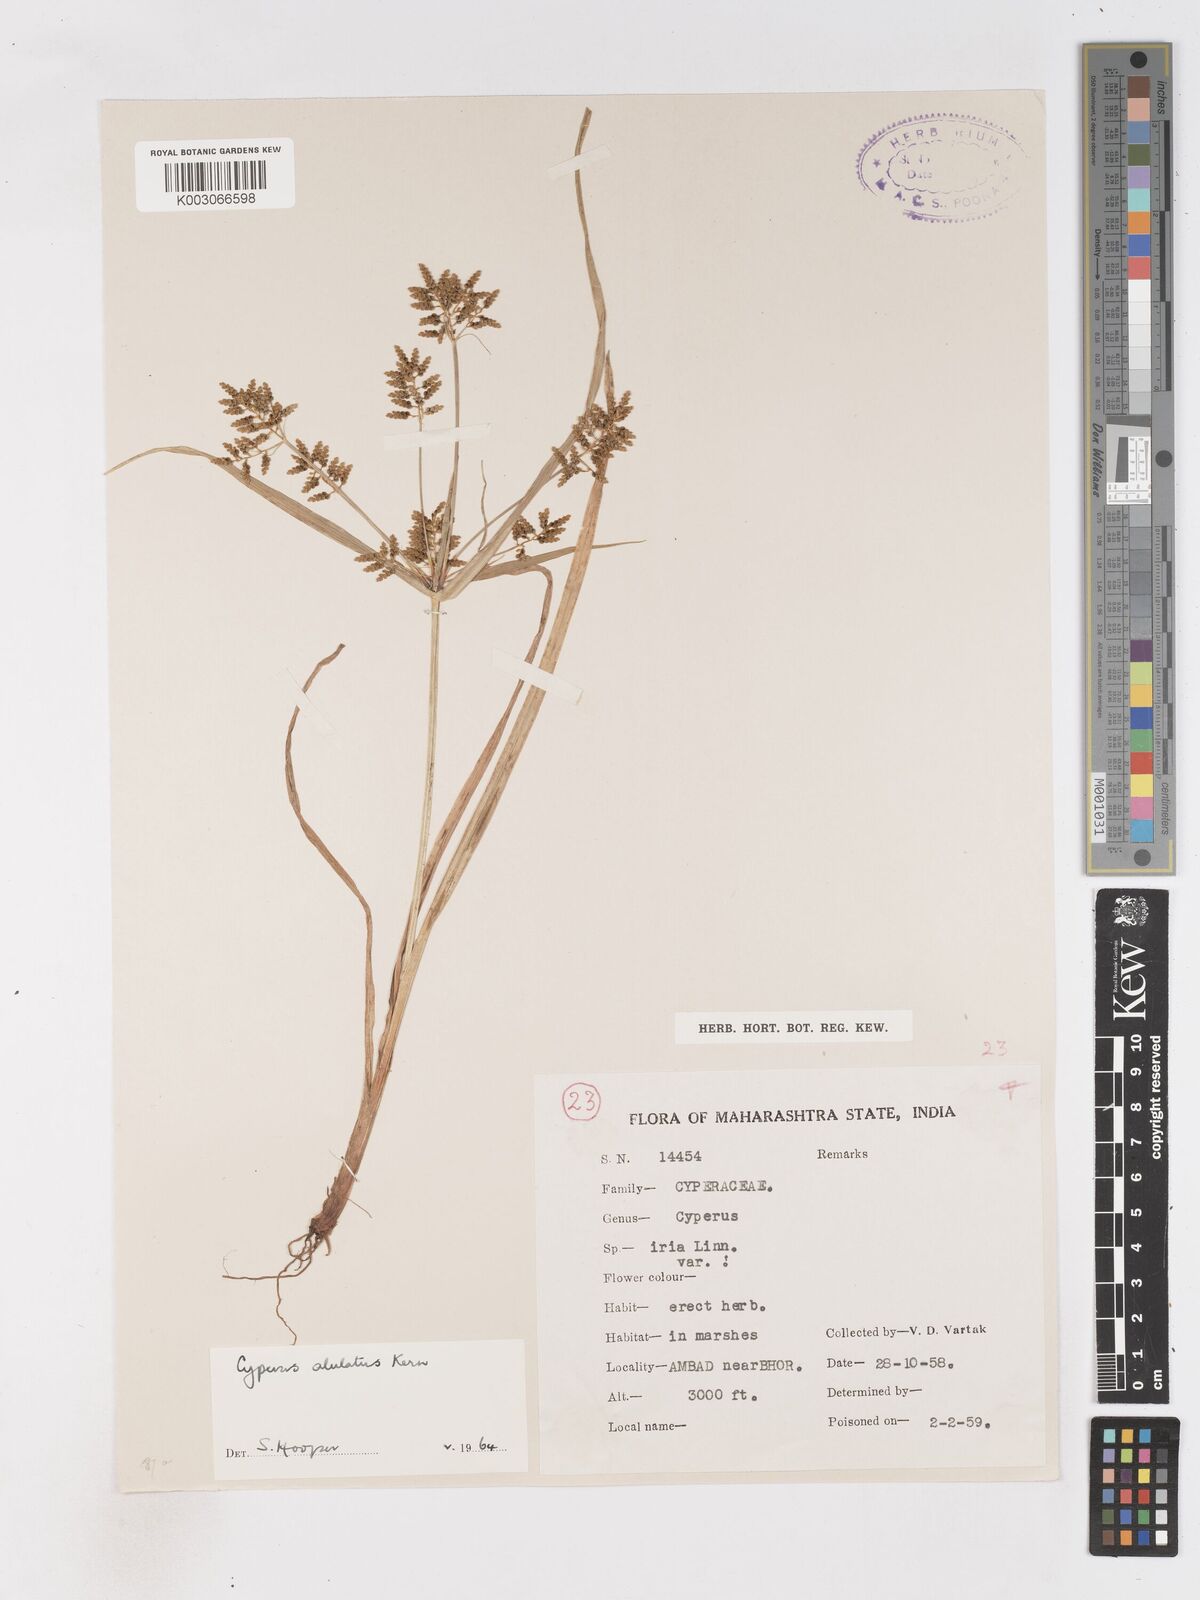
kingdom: Plantae
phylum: Tracheophyta
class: Liliopsida
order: Poales
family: Cyperaceae
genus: Cyperus
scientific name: Cyperus alulatus
